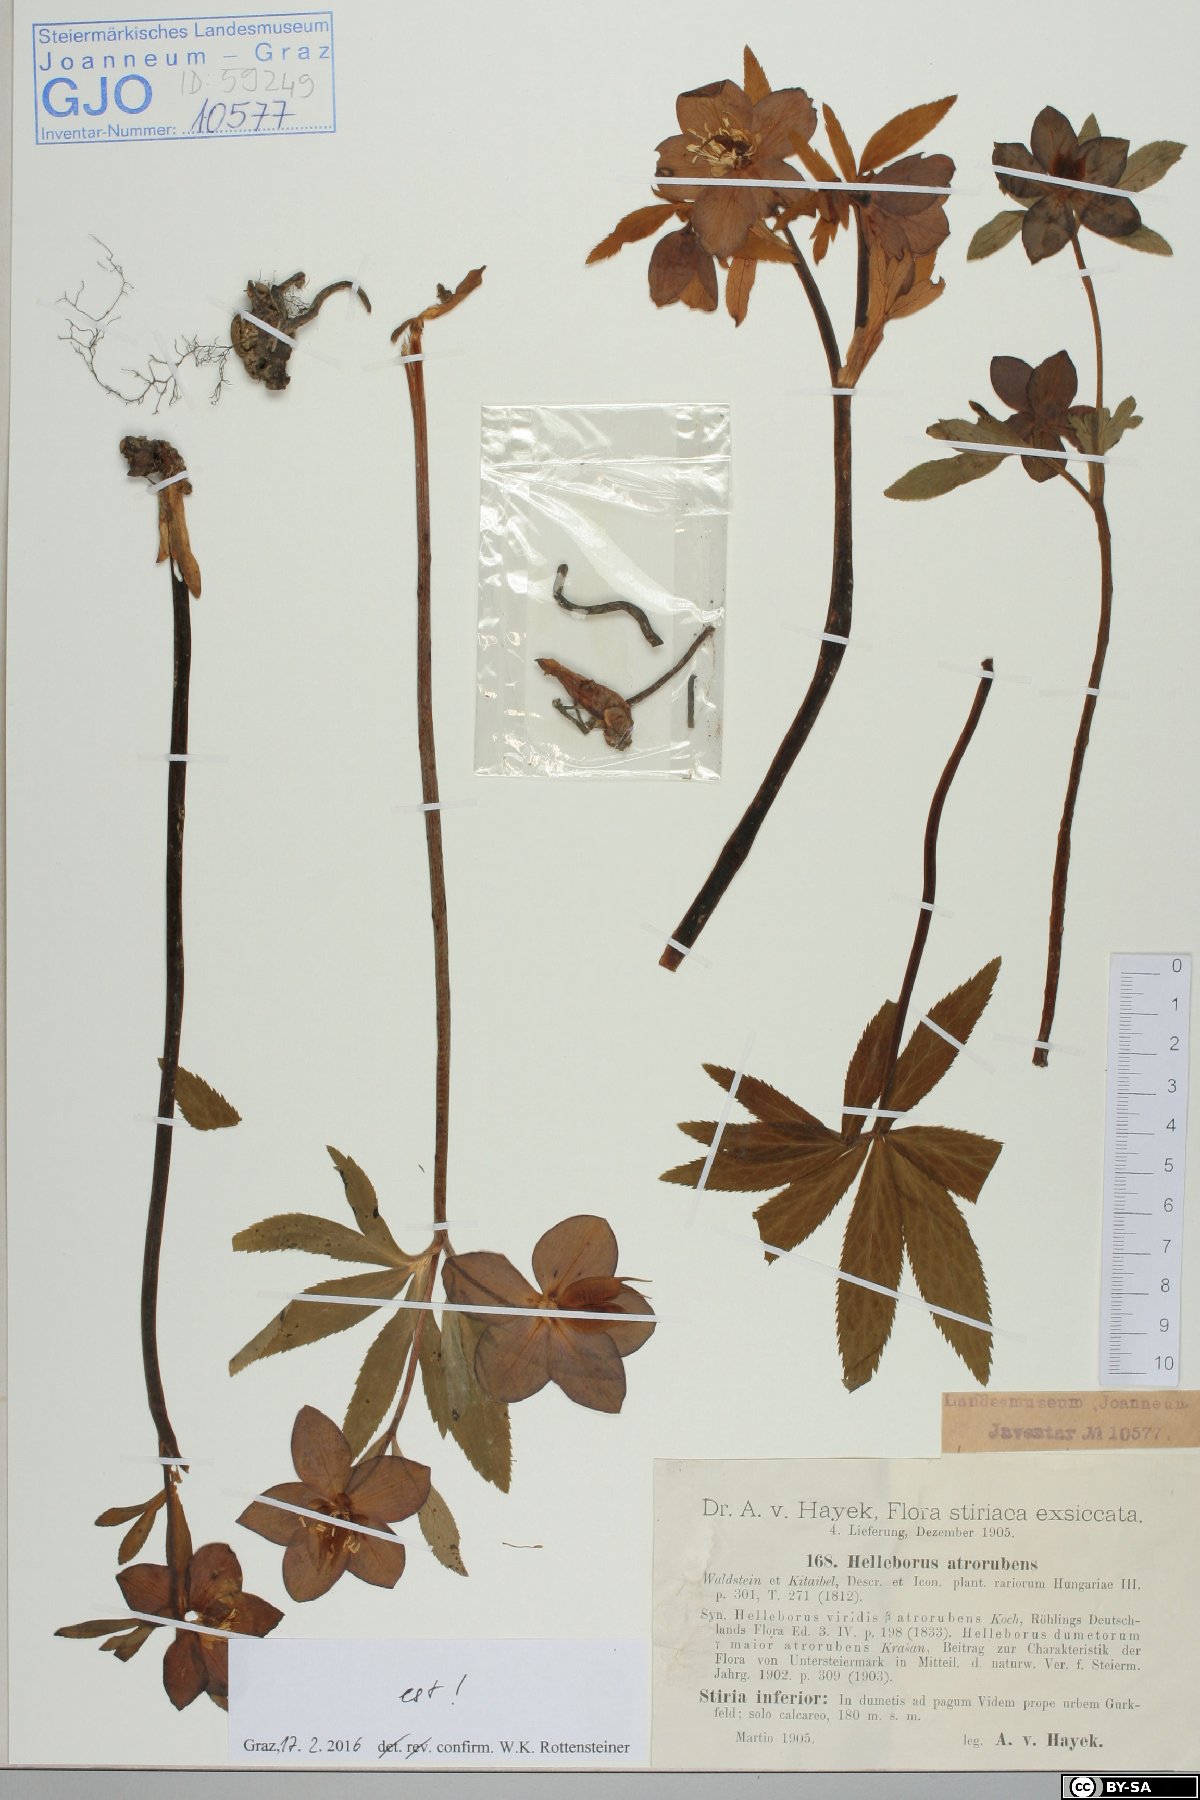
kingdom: Plantae
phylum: Tracheophyta
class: Magnoliopsida
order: Ranunculales
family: Ranunculaceae
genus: Helleborus
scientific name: Helleborus dumetorum
